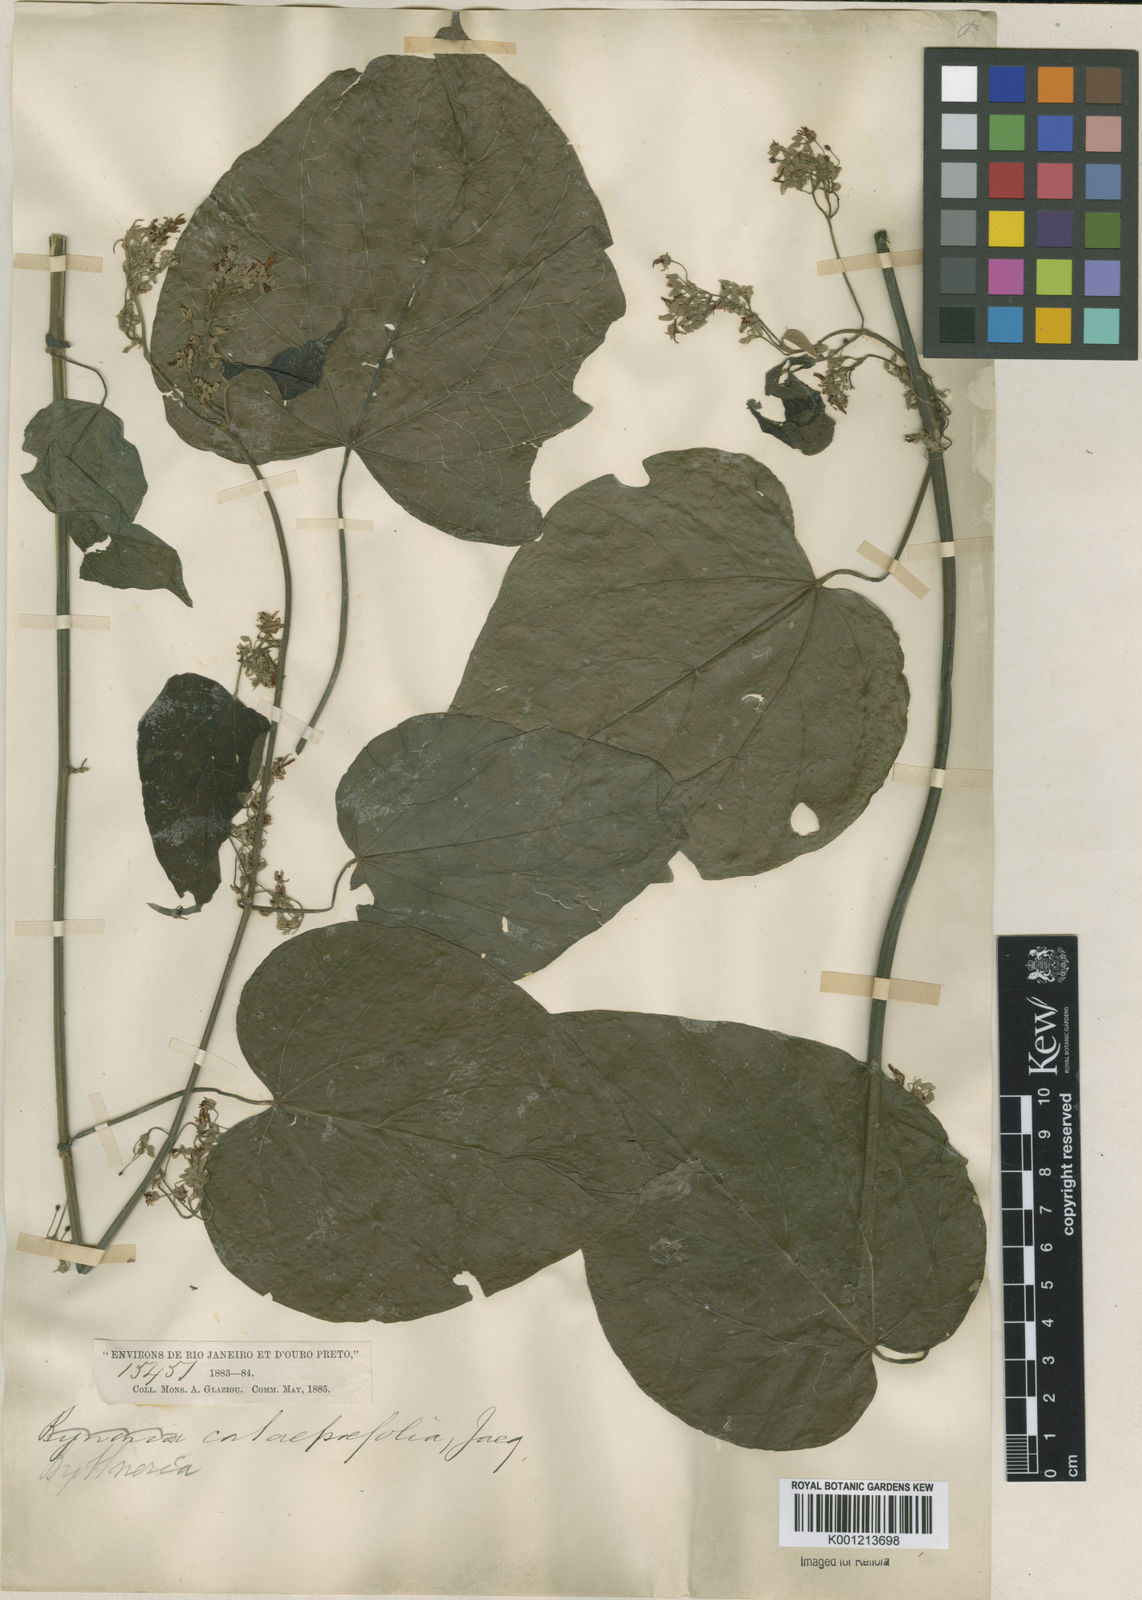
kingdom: Plantae
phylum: Tracheophyta
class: Magnoliopsida
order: Malvales
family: Malvaceae
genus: Byttneria
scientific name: Byttneria catalpifolia
